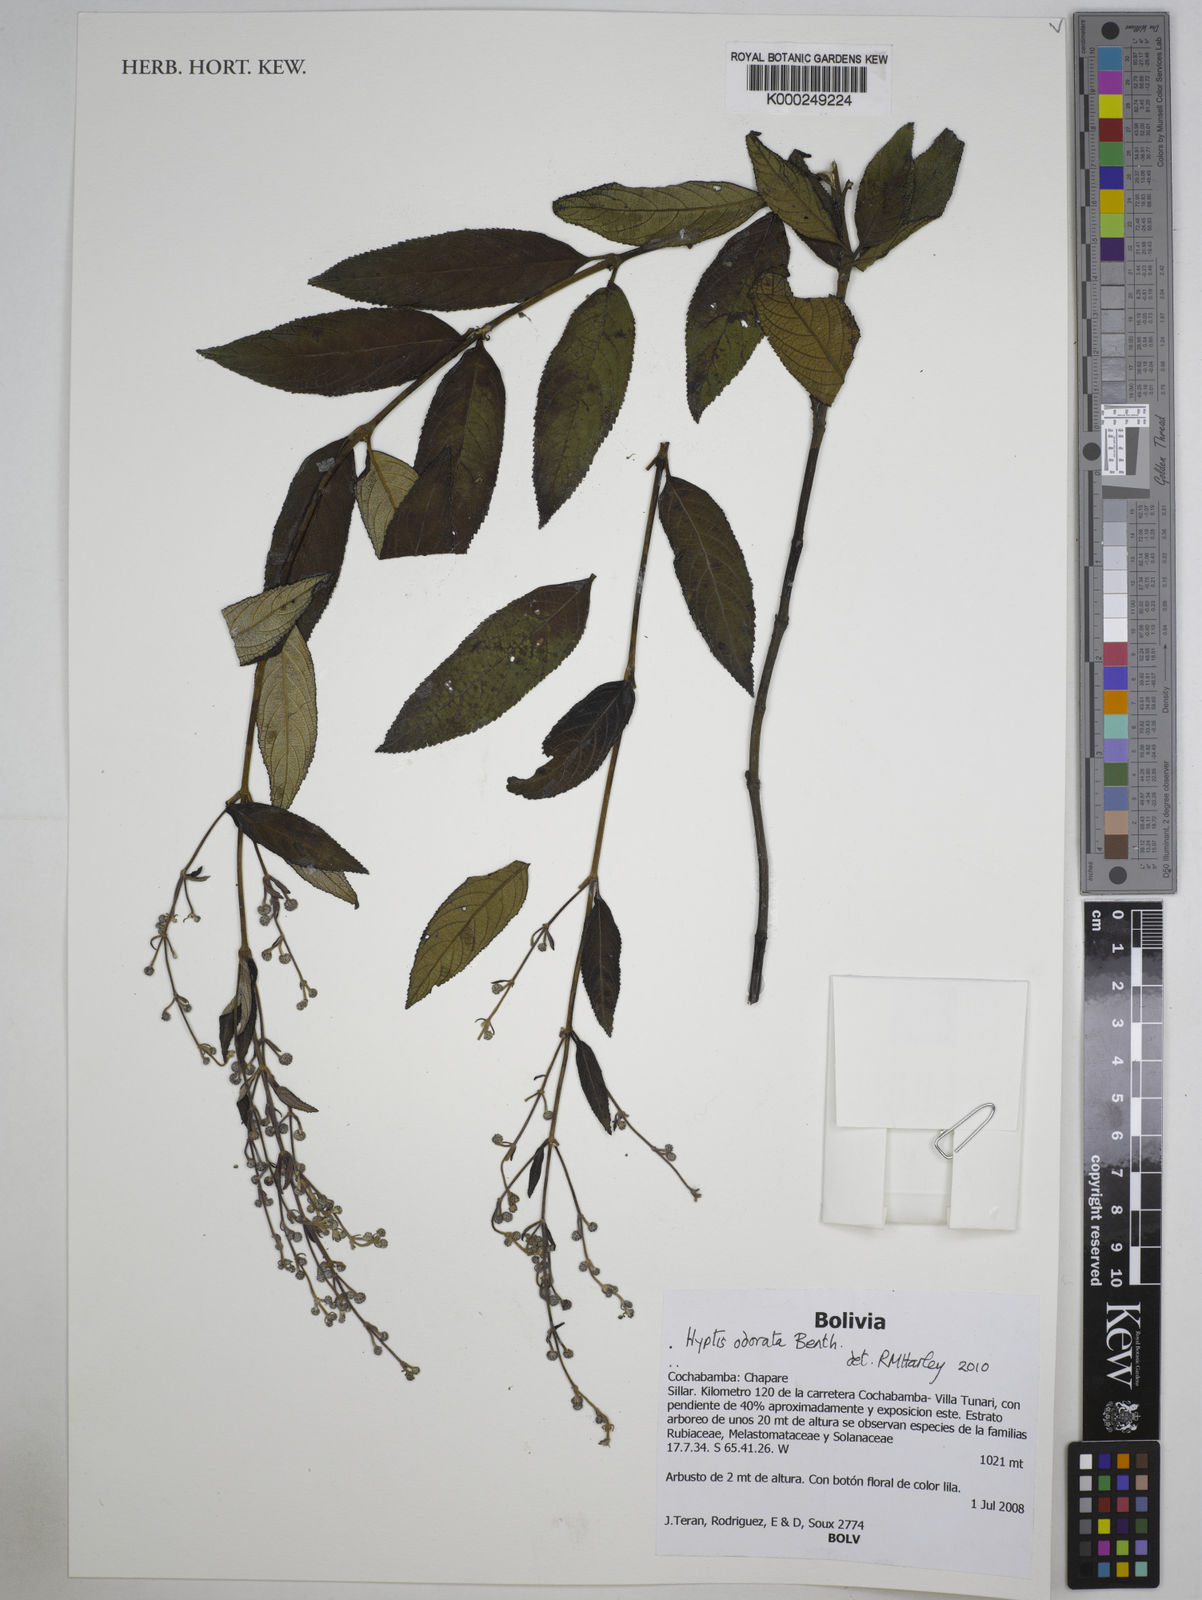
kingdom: Plantae
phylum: Tracheophyta
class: Magnoliopsida
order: Lamiales
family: Lamiaceae
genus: Hyptis
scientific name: Hyptis odorata
